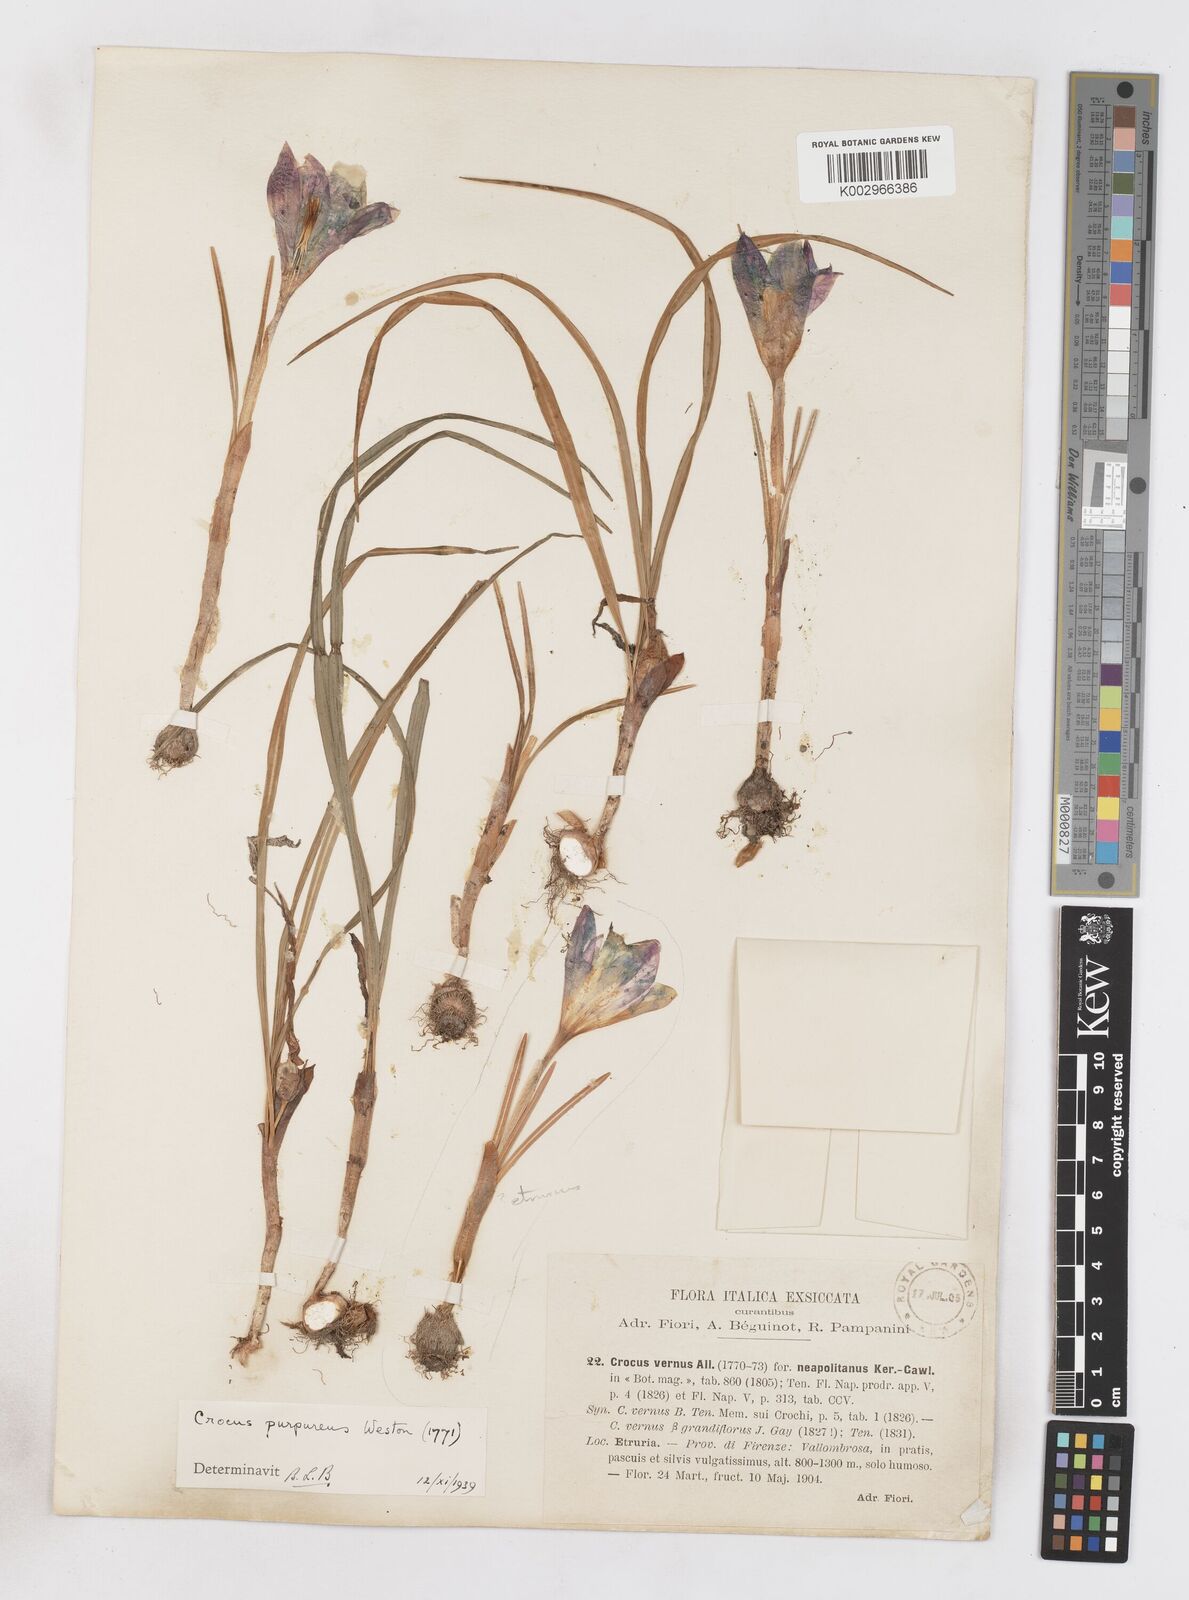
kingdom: Plantae
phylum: Tracheophyta
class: Liliopsida
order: Asparagales
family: Iridaceae
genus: Crocus
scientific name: Crocus vernus
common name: Spring crocus
